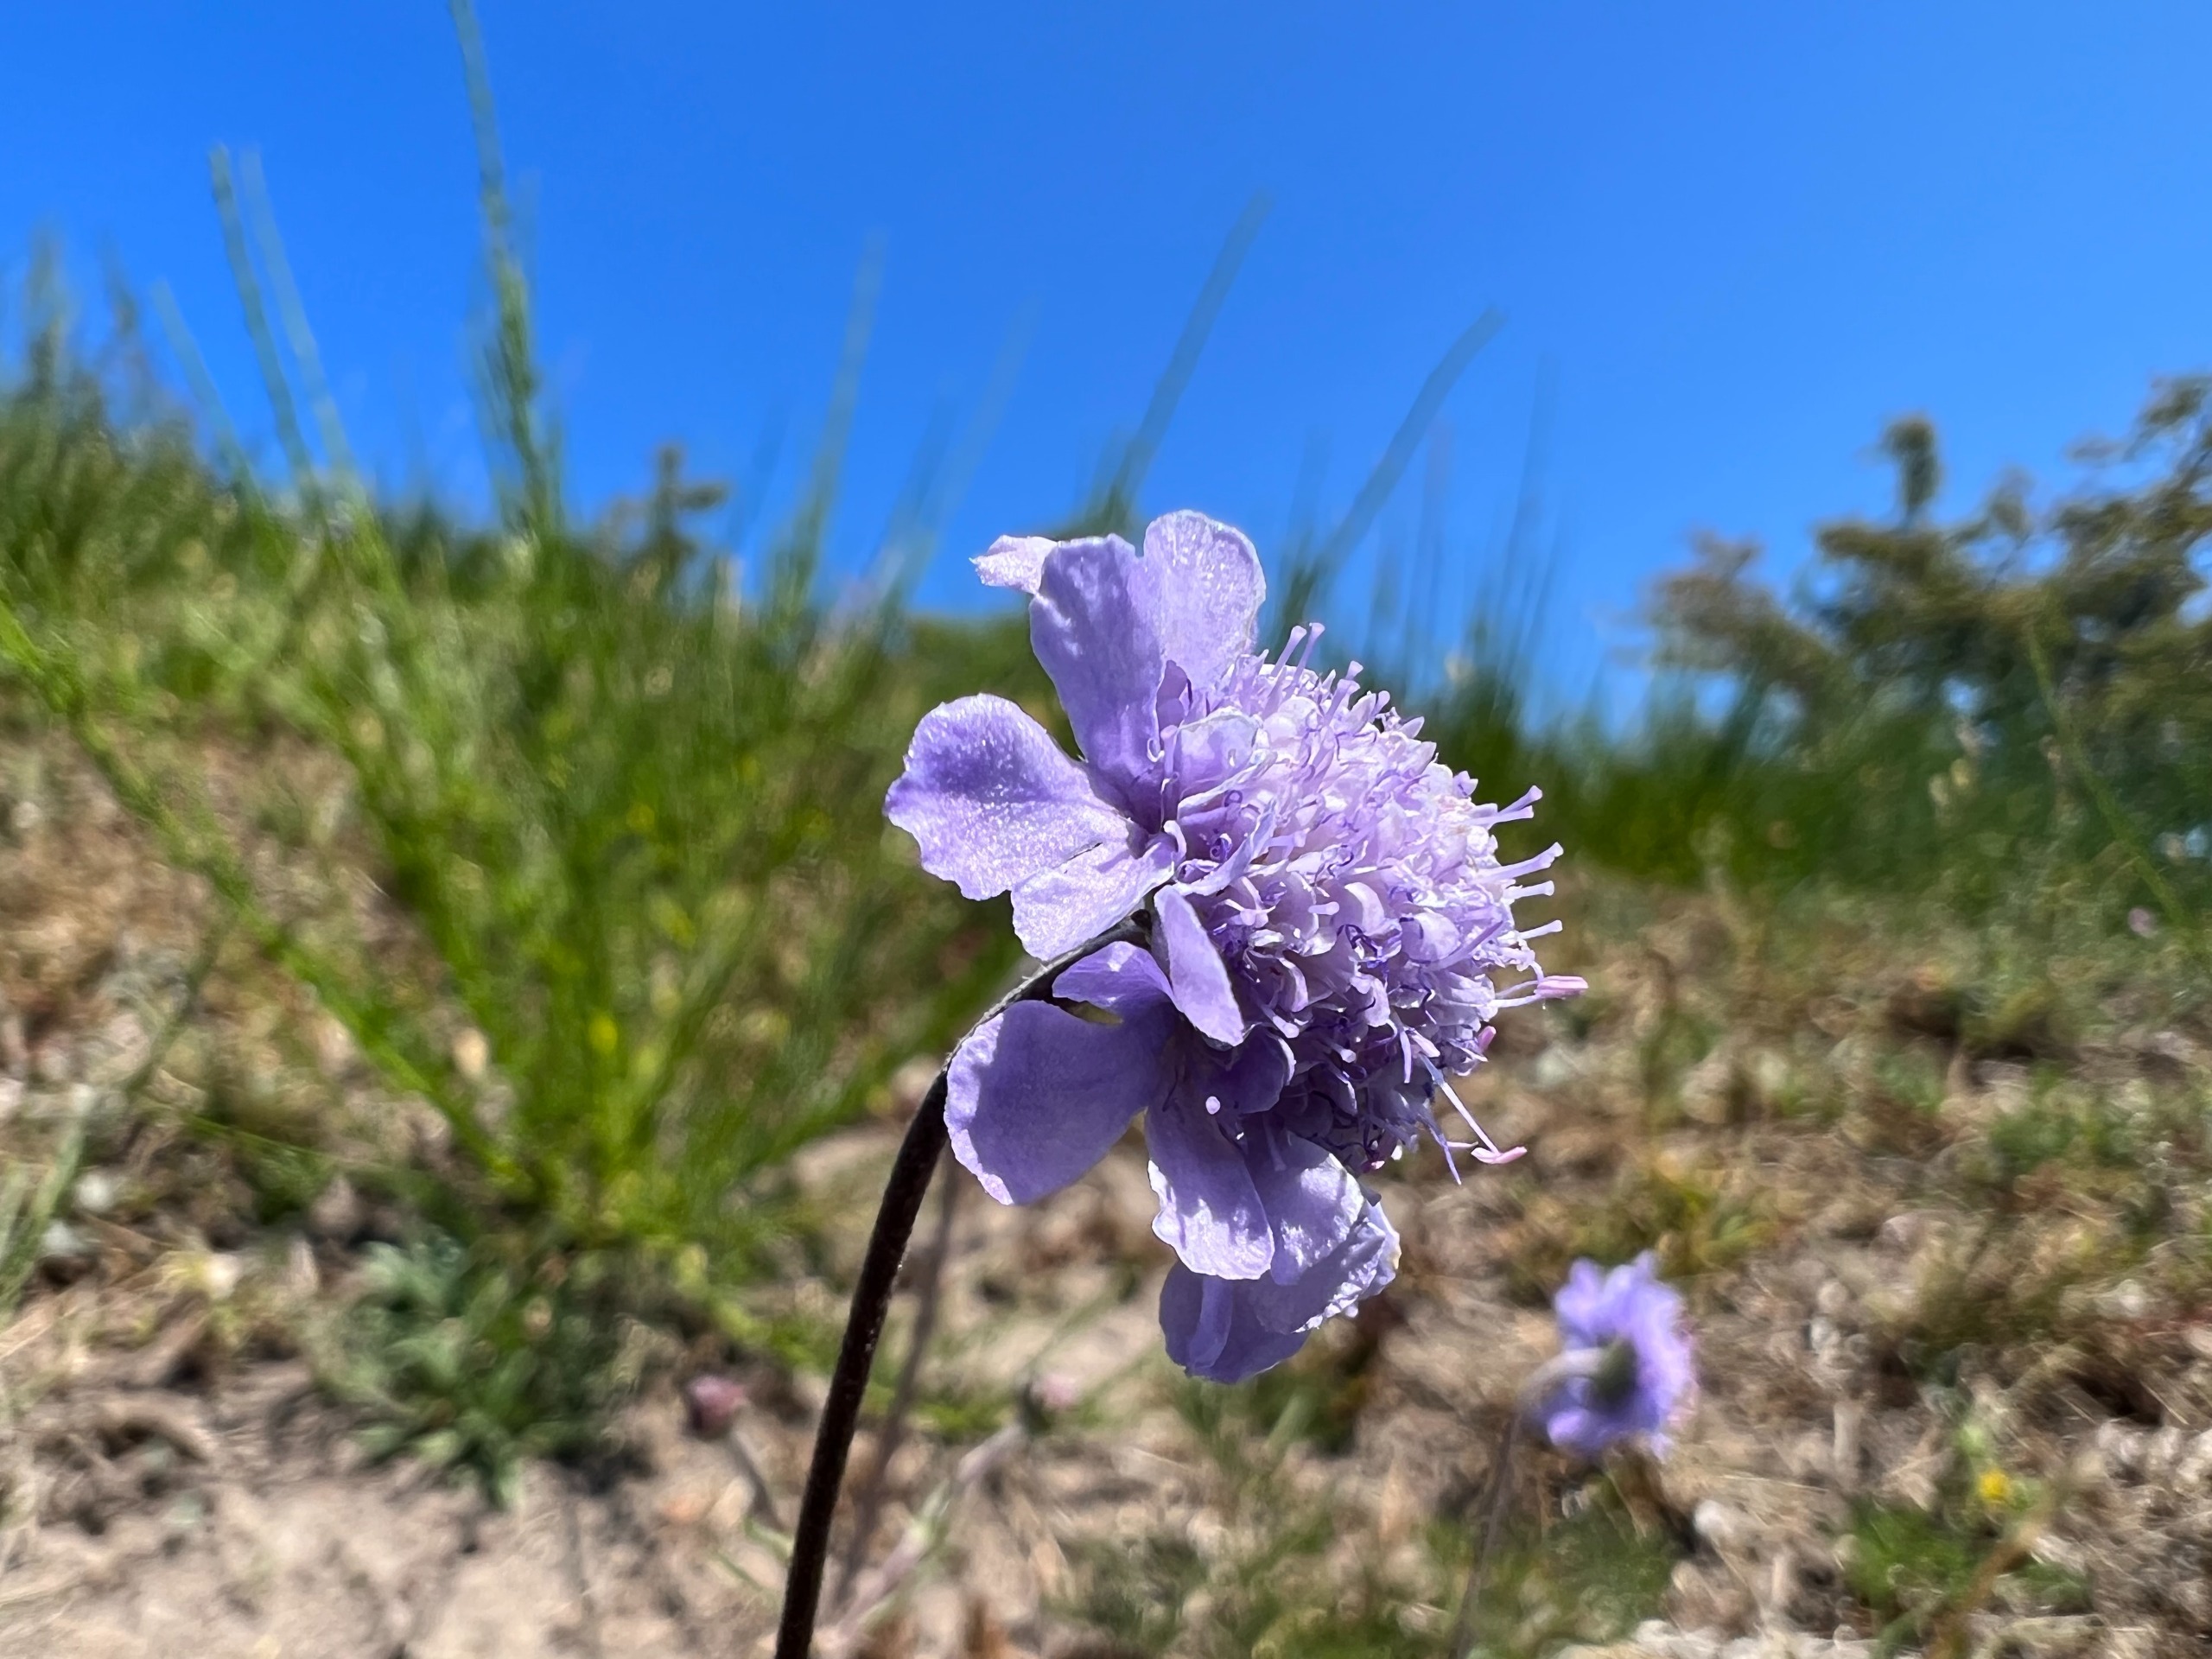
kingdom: Plantae
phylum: Tracheophyta
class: Magnoliopsida
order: Dipsacales
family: Caprifoliaceae
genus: Scabiosa
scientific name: Scabiosa canescens
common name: Vellugtende skabiose
